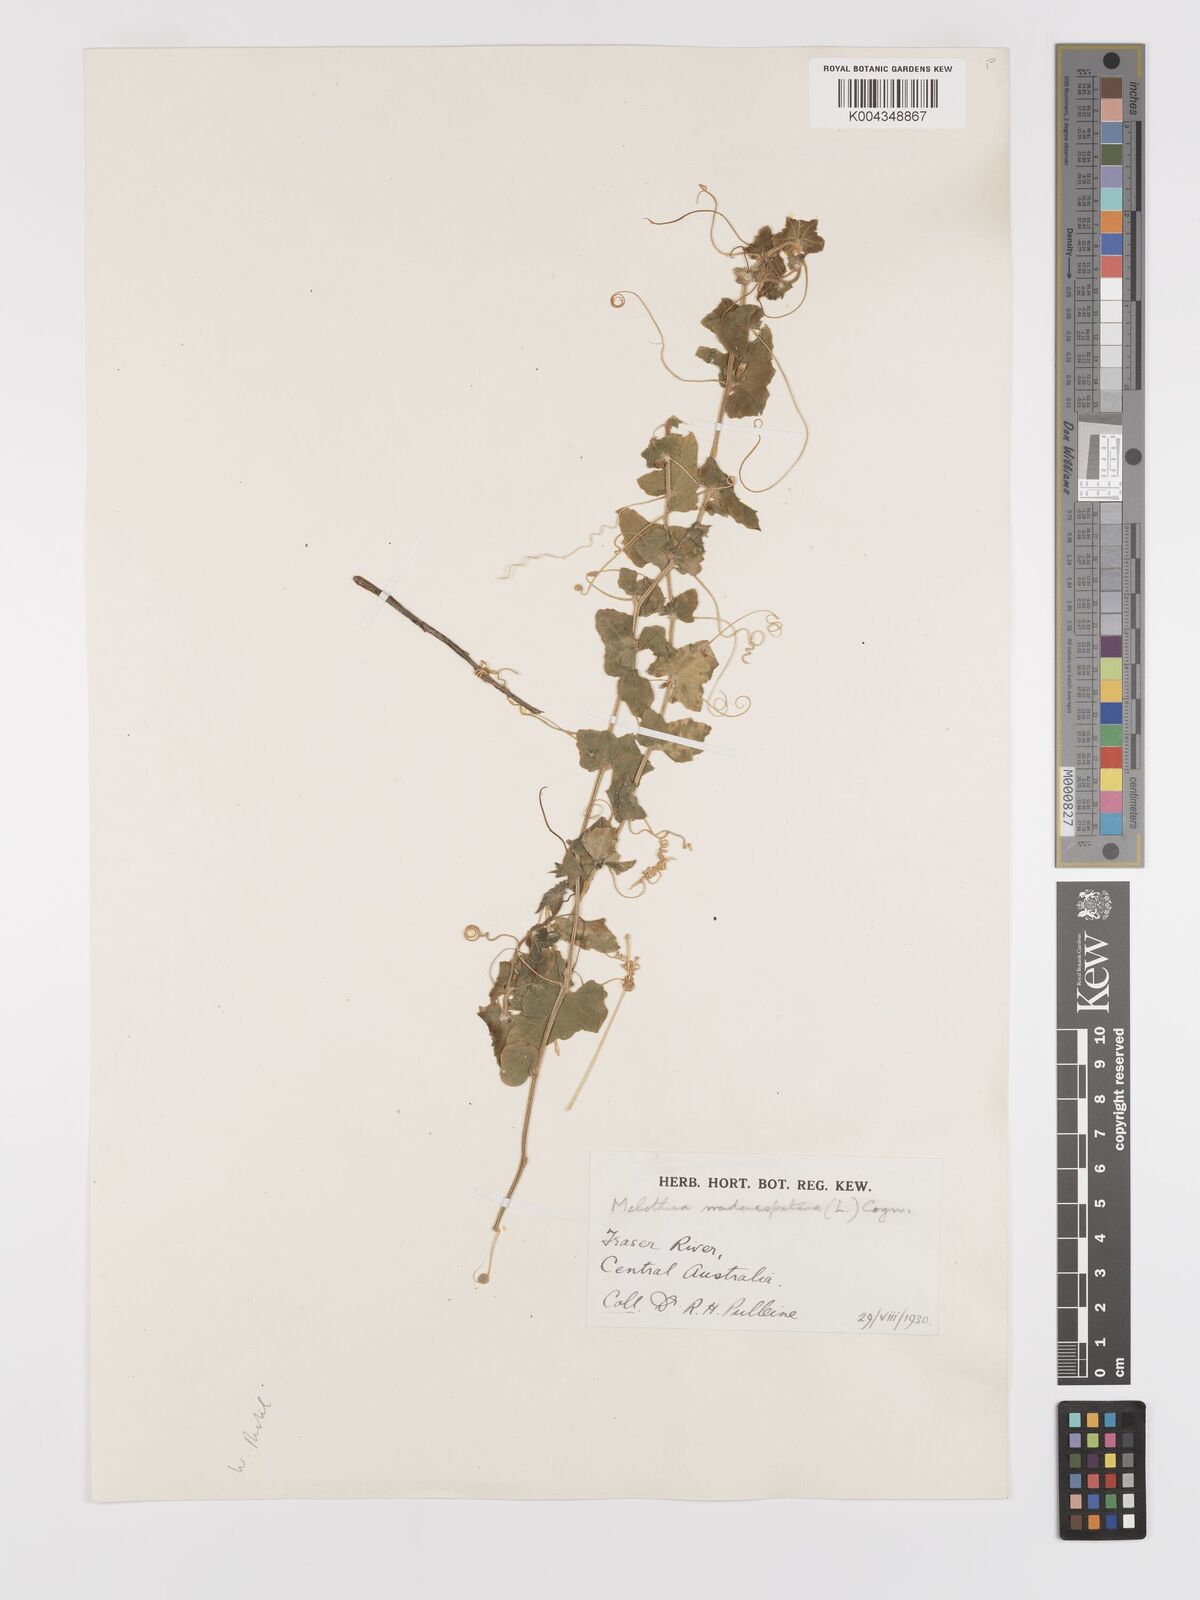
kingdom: Animalia
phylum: Arthropoda
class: Insecta
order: Lepidoptera
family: Crambidae
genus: Mukia
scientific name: Mukia
